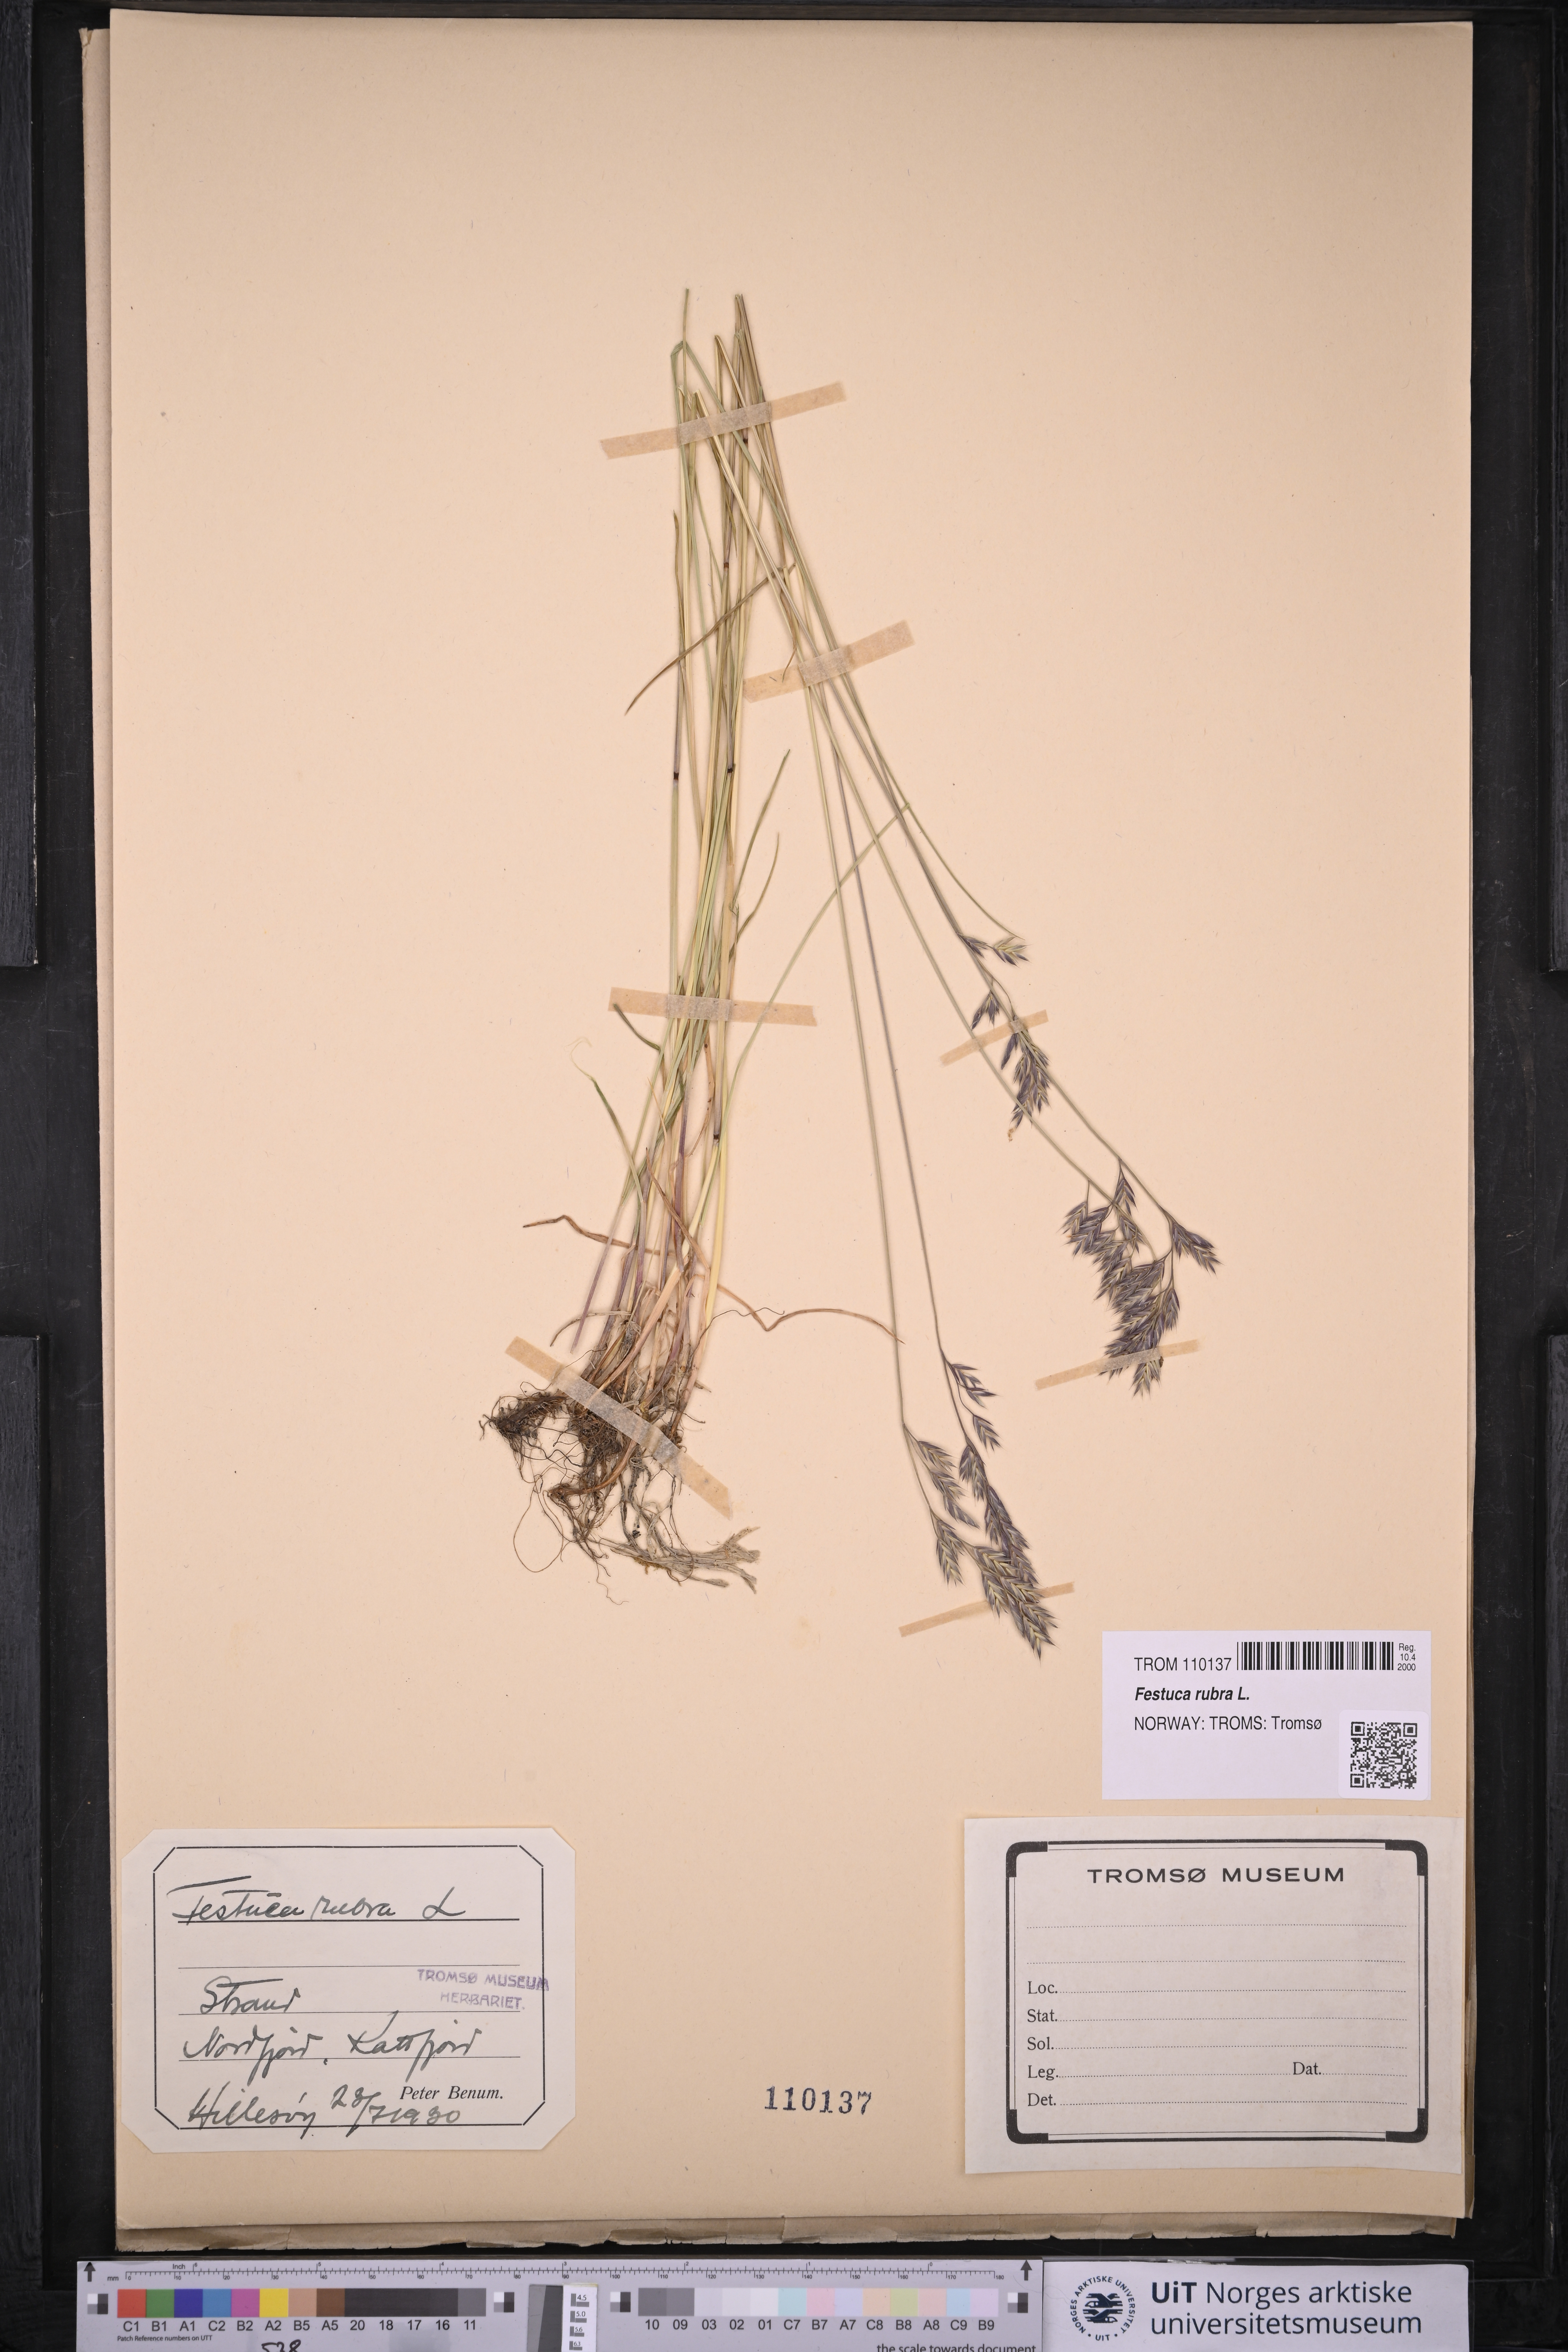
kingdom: Plantae
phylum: Tracheophyta
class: Liliopsida
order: Poales
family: Poaceae
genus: Festuca
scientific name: Festuca rubra
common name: Red fescue
